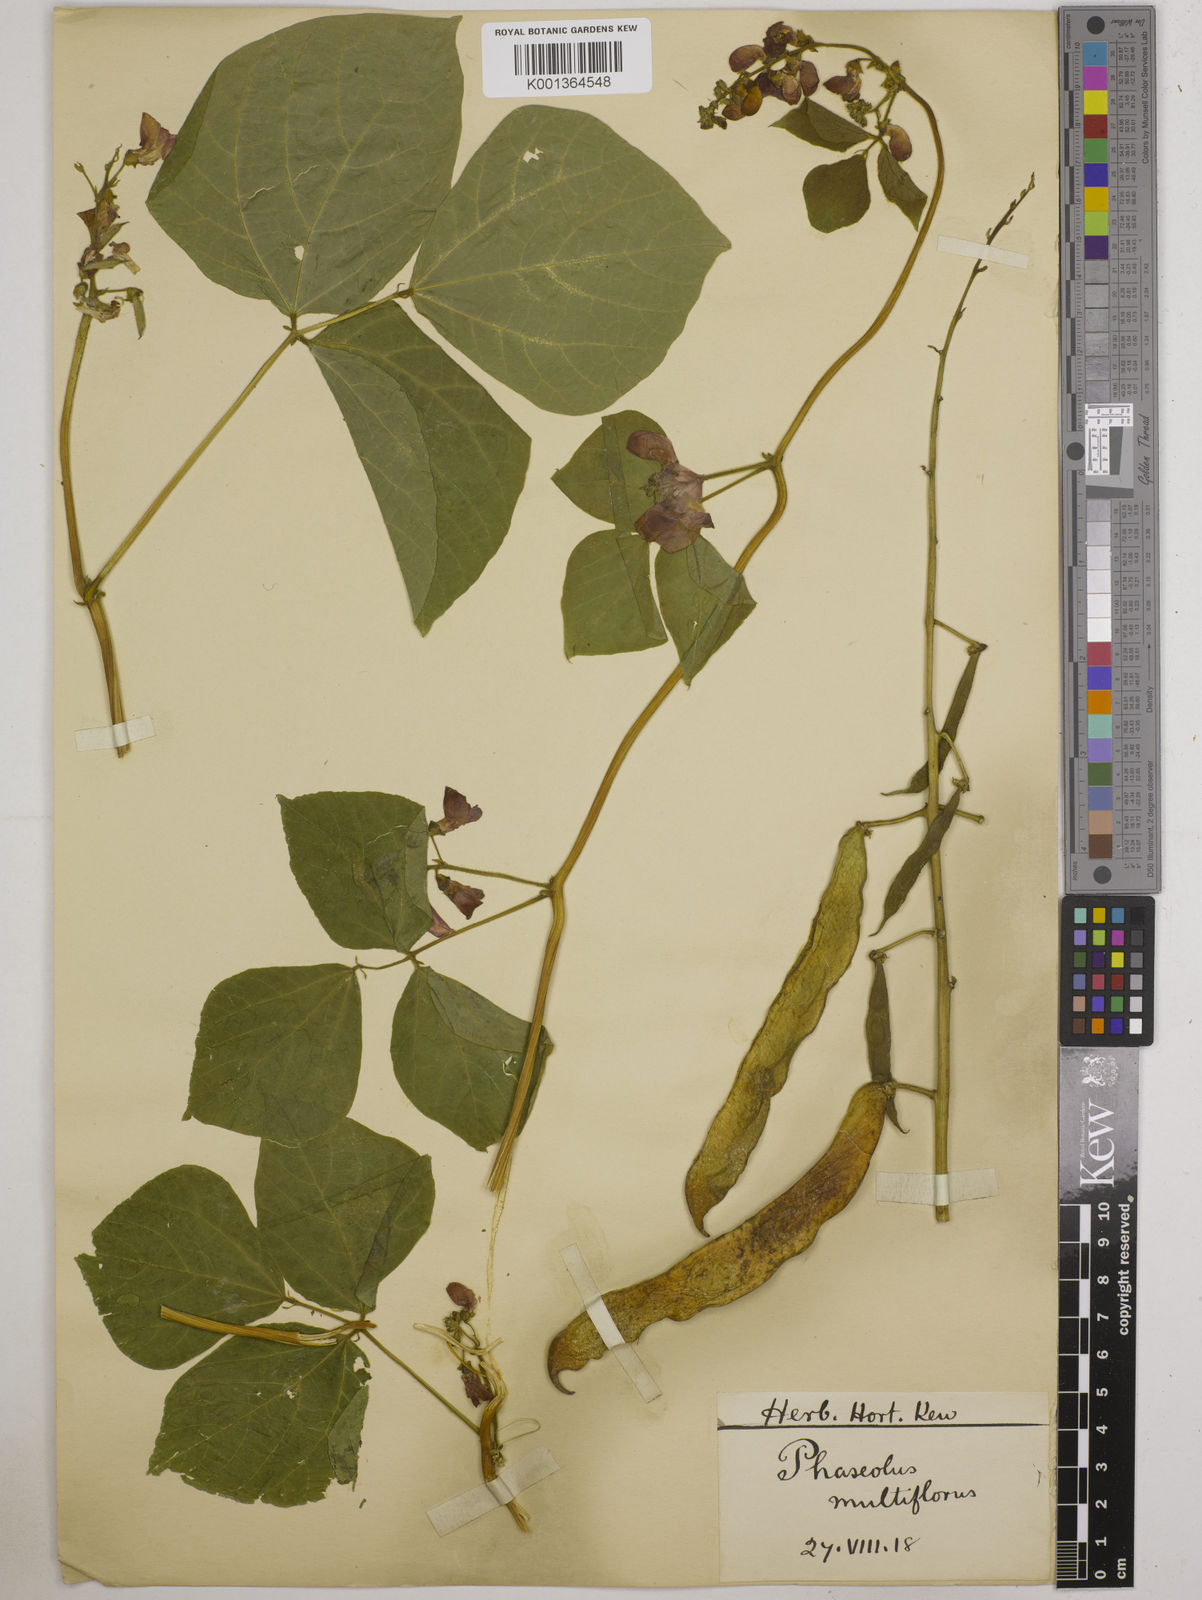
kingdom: Plantae
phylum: Tracheophyta
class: Magnoliopsida
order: Fabales
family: Fabaceae
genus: Phaseolus
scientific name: Phaseolus coccineus
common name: Runner bean
